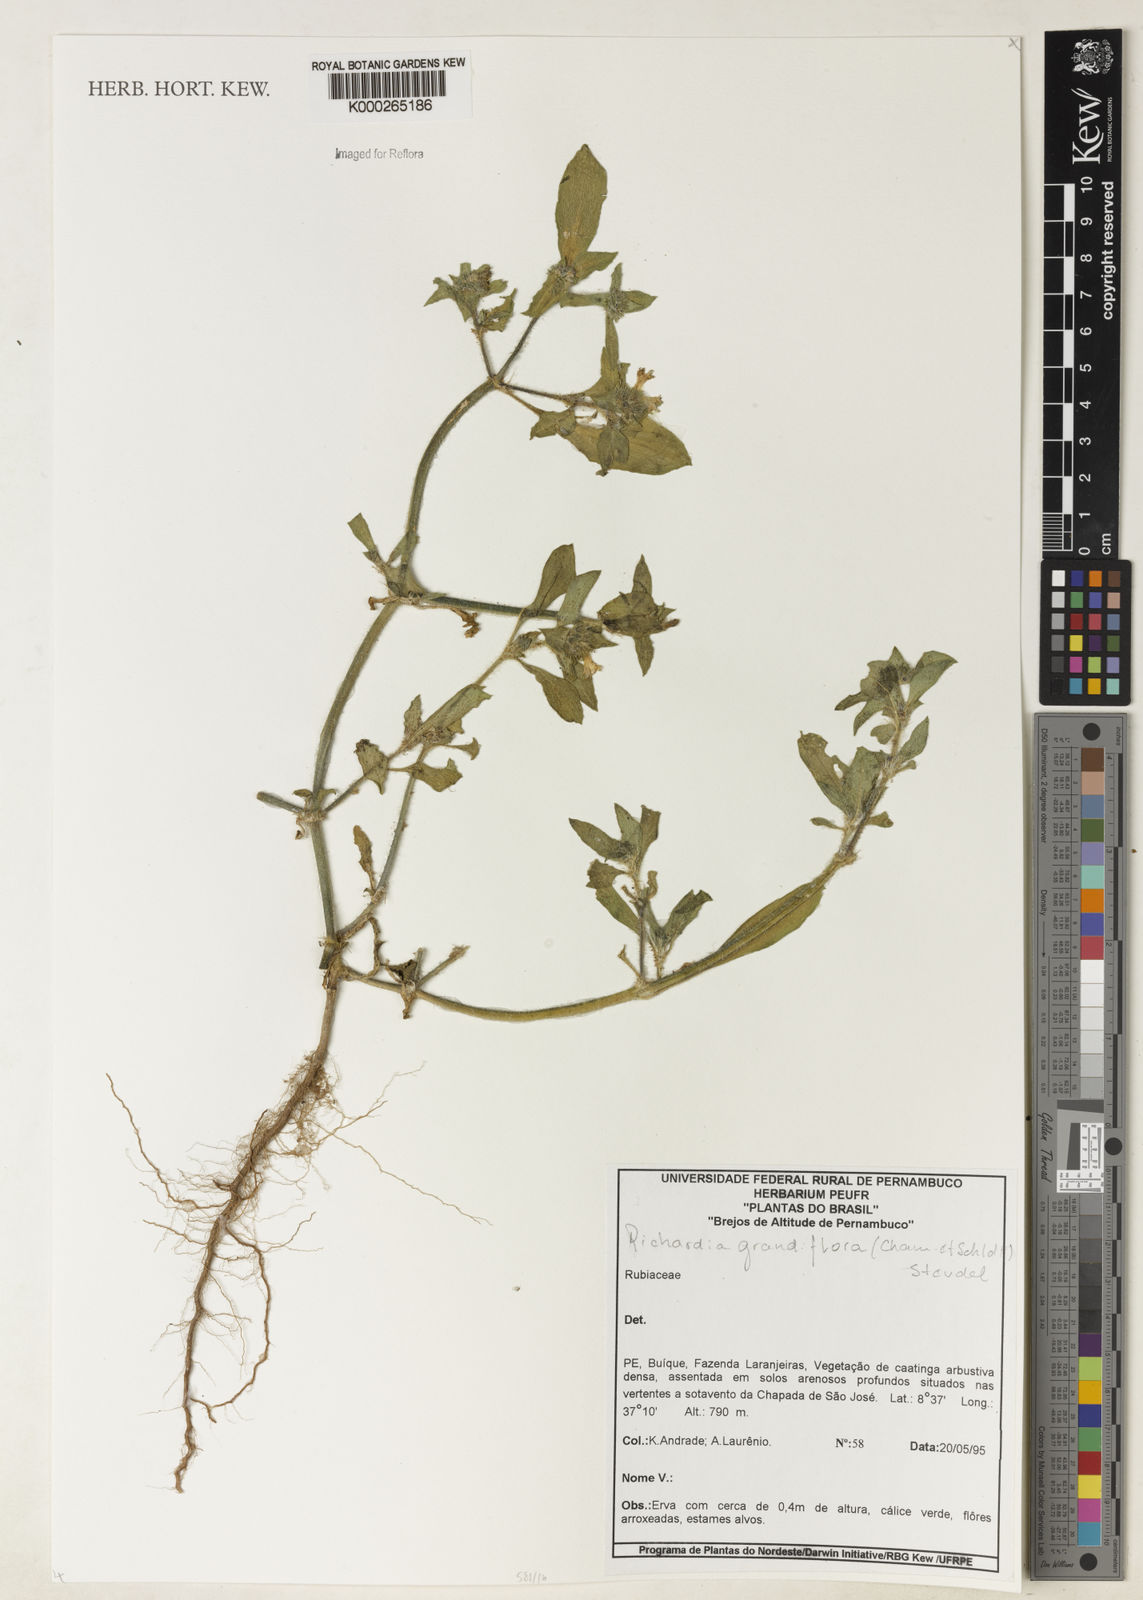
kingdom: Plantae
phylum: Tracheophyta
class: Magnoliopsida
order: Gentianales
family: Rubiaceae
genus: Richardia
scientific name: Richardia grandiflora
